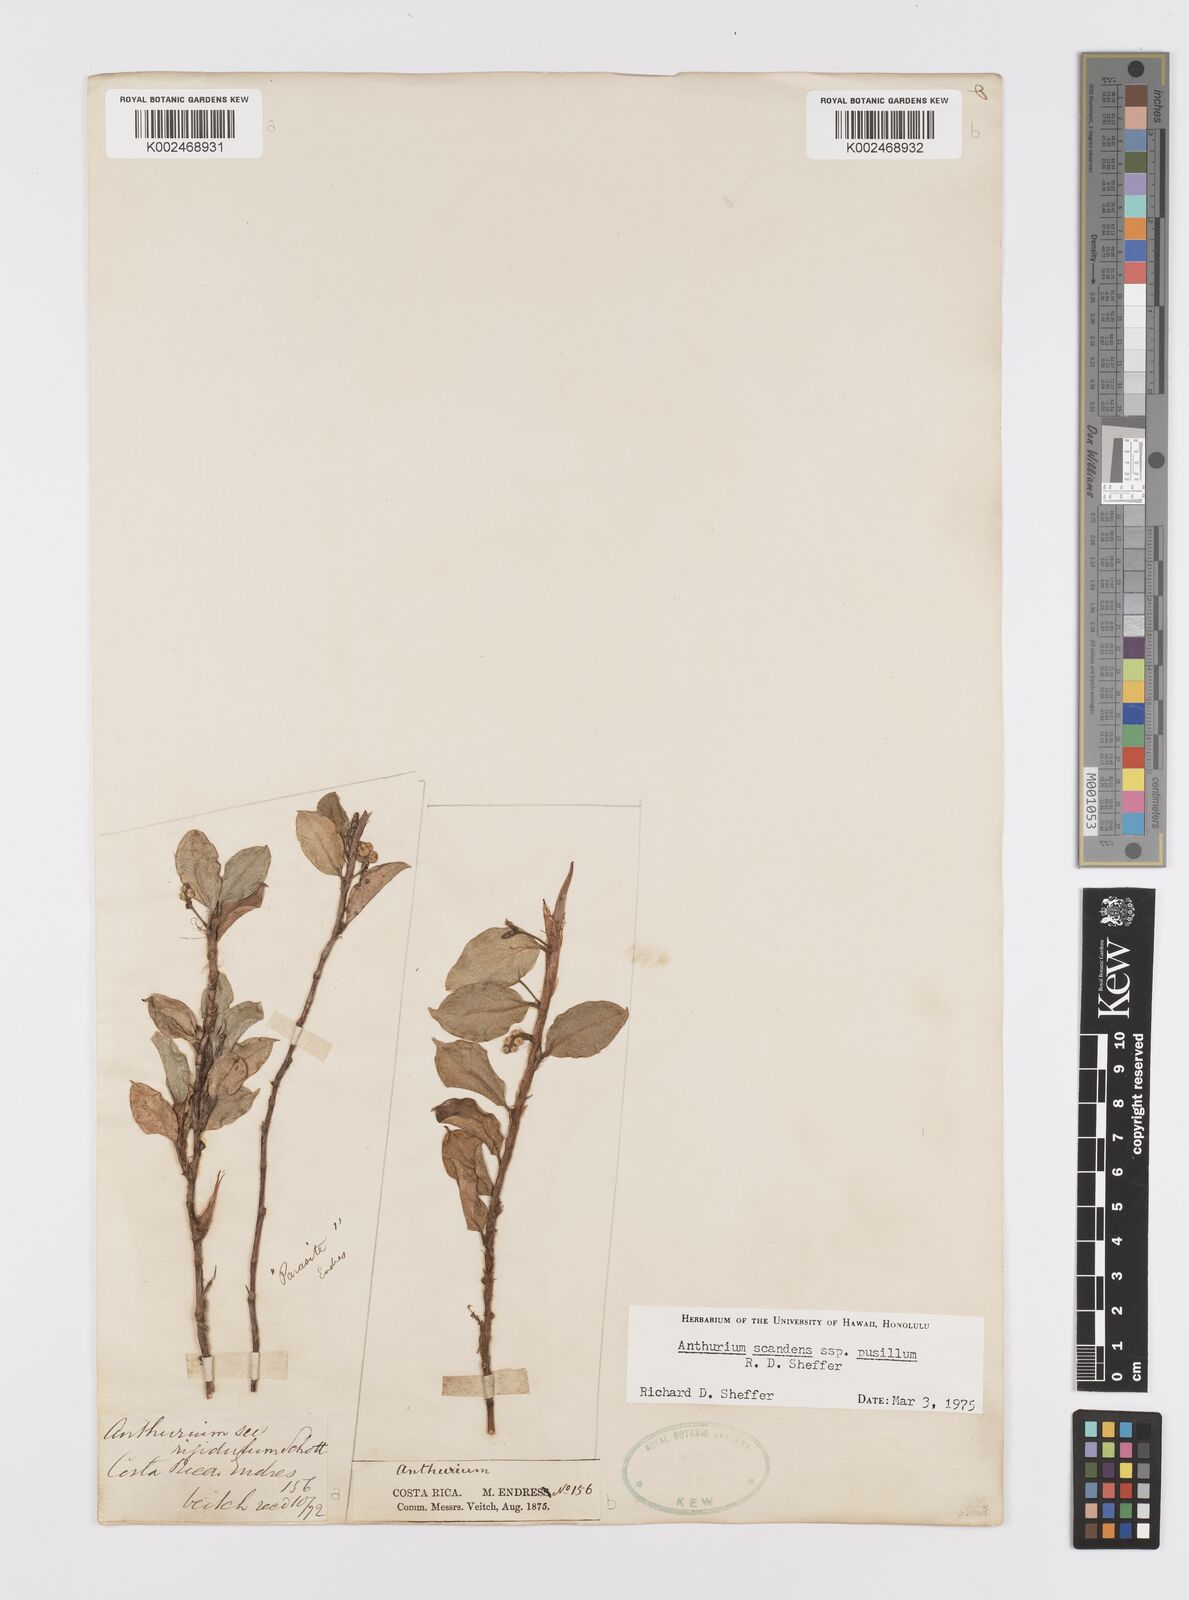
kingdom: Plantae
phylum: Tracheophyta
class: Liliopsida
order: Alismatales
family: Araceae
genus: Anthurium
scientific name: Anthurium scandens
